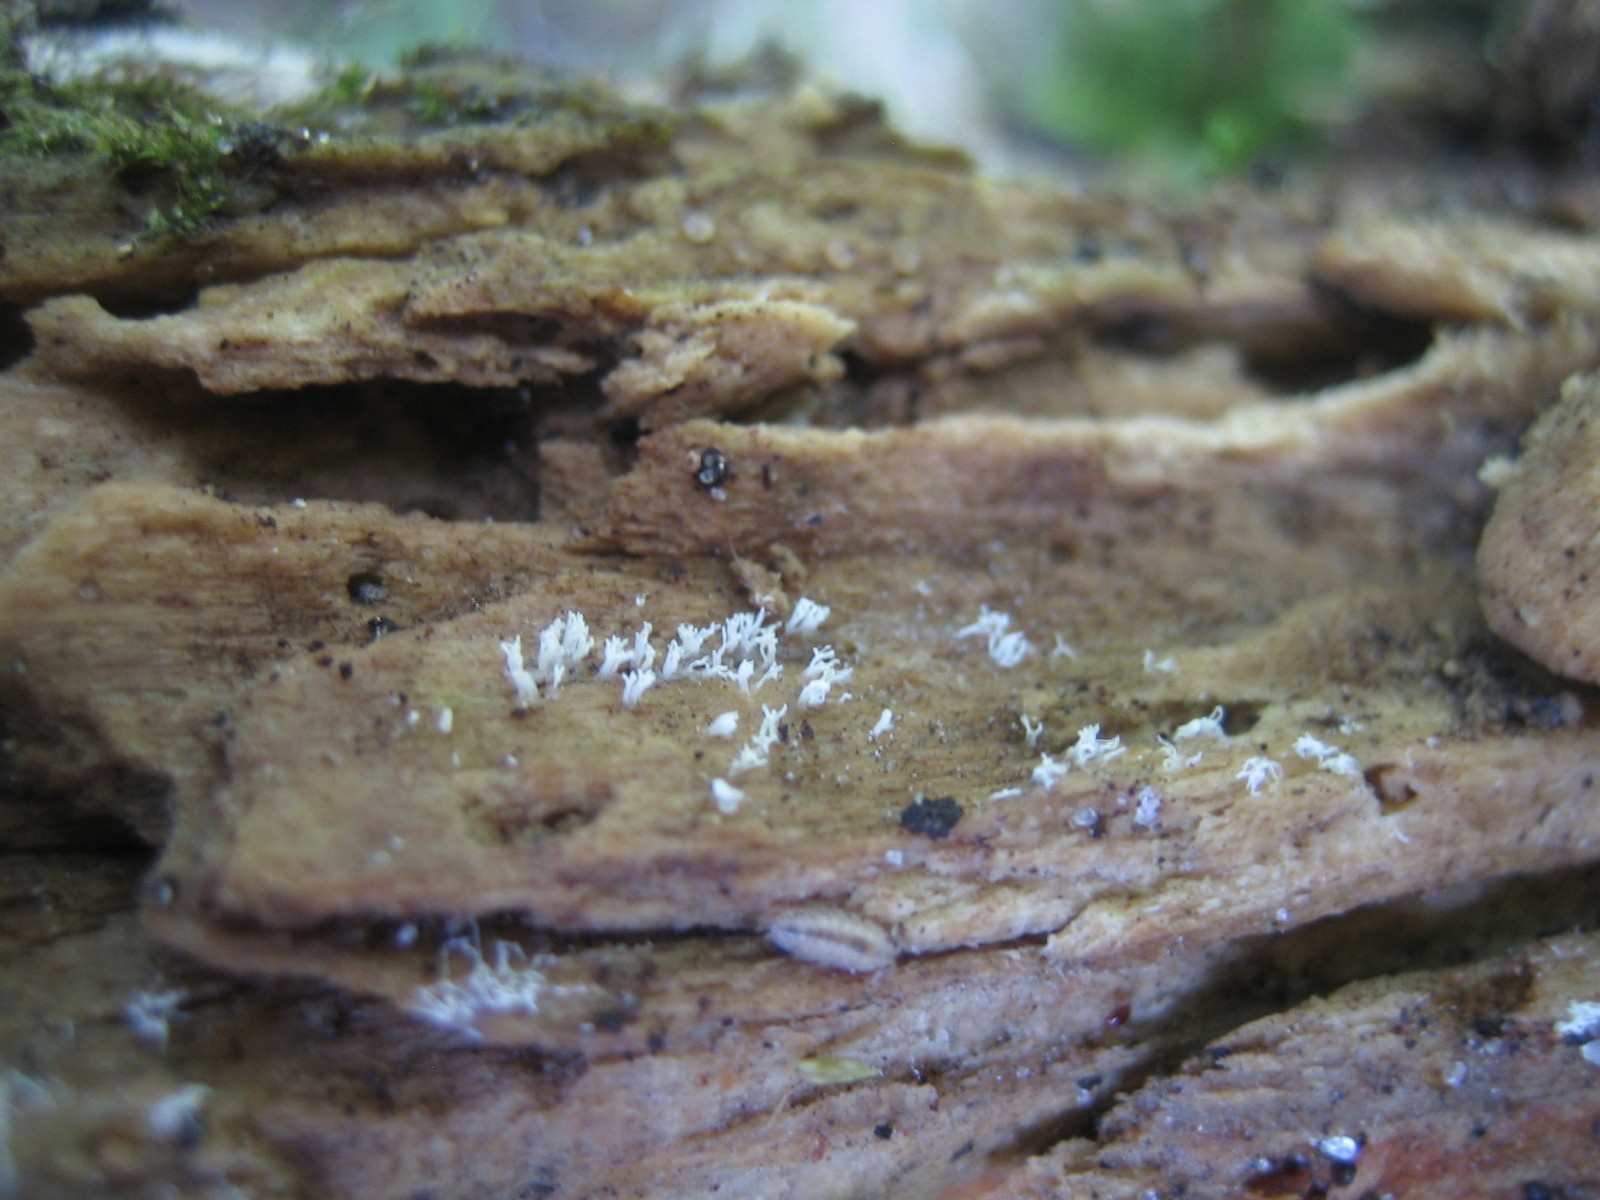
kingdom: Protozoa
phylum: Mycetozoa
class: Protosteliomycetes
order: Ceratiomyxales
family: Ceratiomyxaceae
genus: Ceratiomyxa
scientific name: Ceratiomyxa fruticulosa
